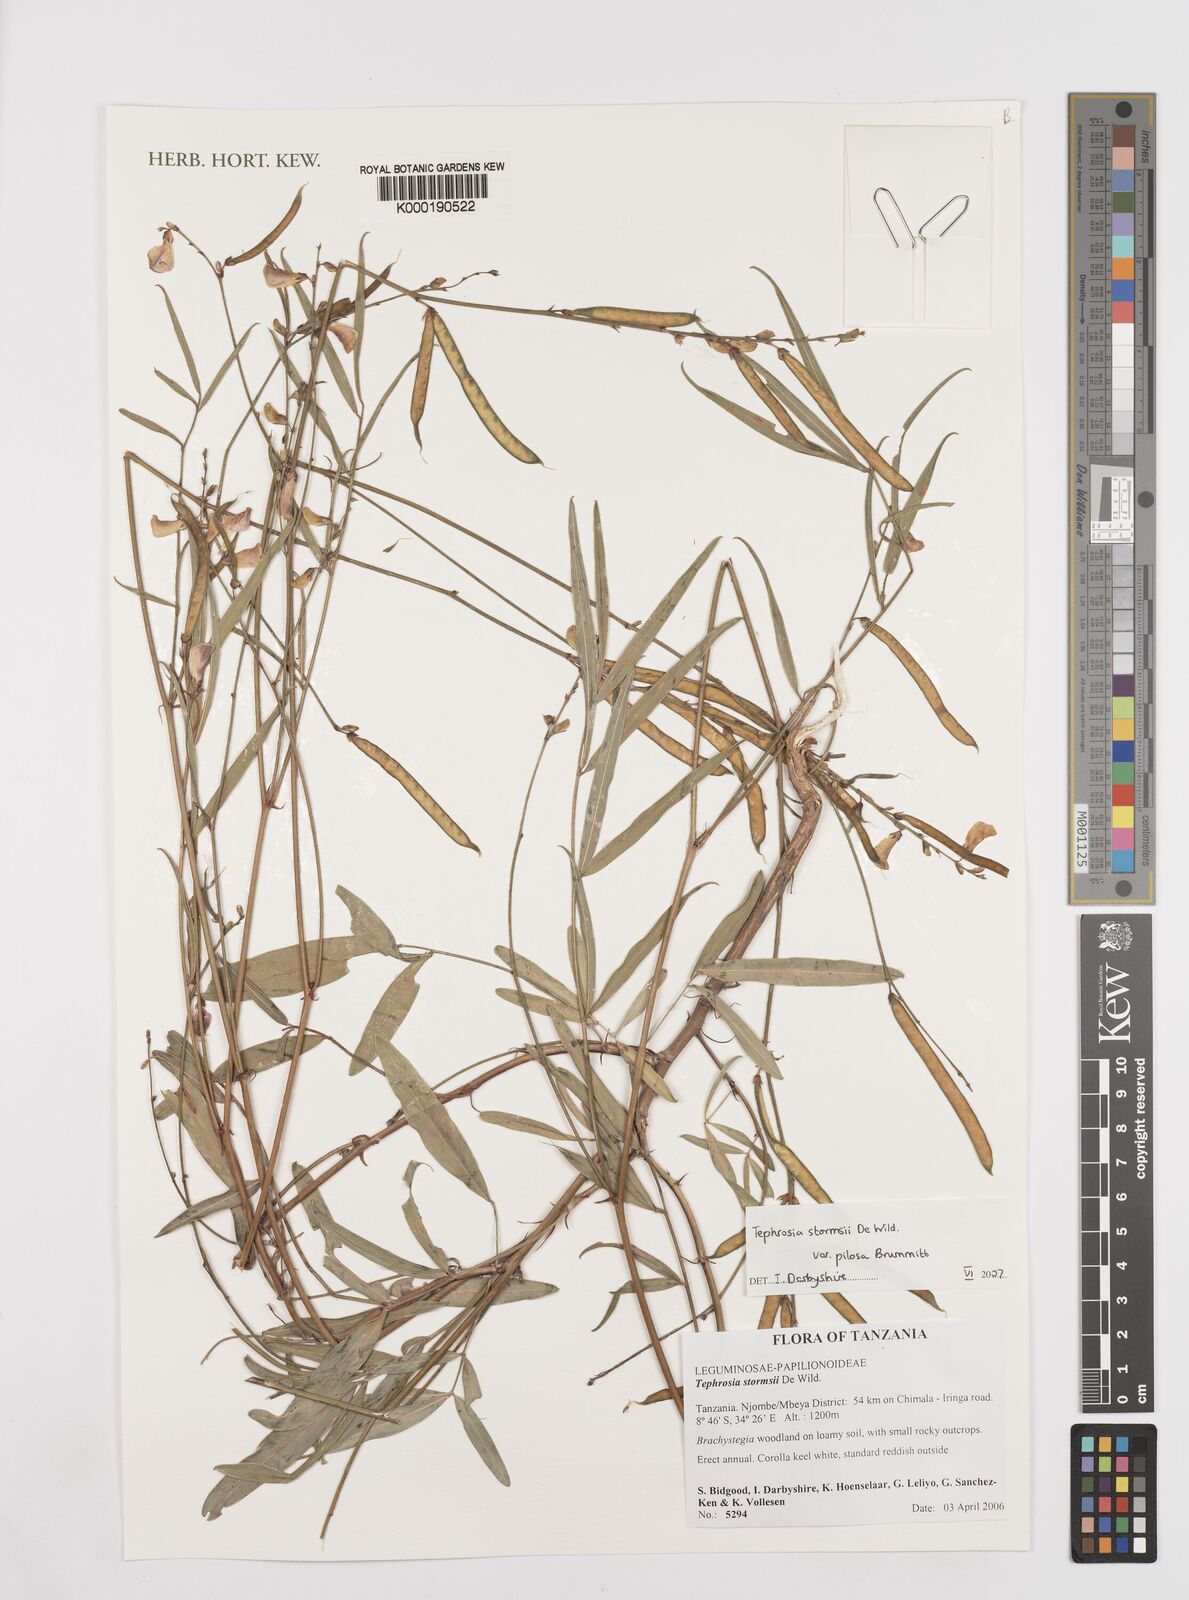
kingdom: Plantae
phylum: Tracheophyta
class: Magnoliopsida
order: Fabales
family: Fabaceae
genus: Tephrosia
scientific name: Tephrosia stormsii
